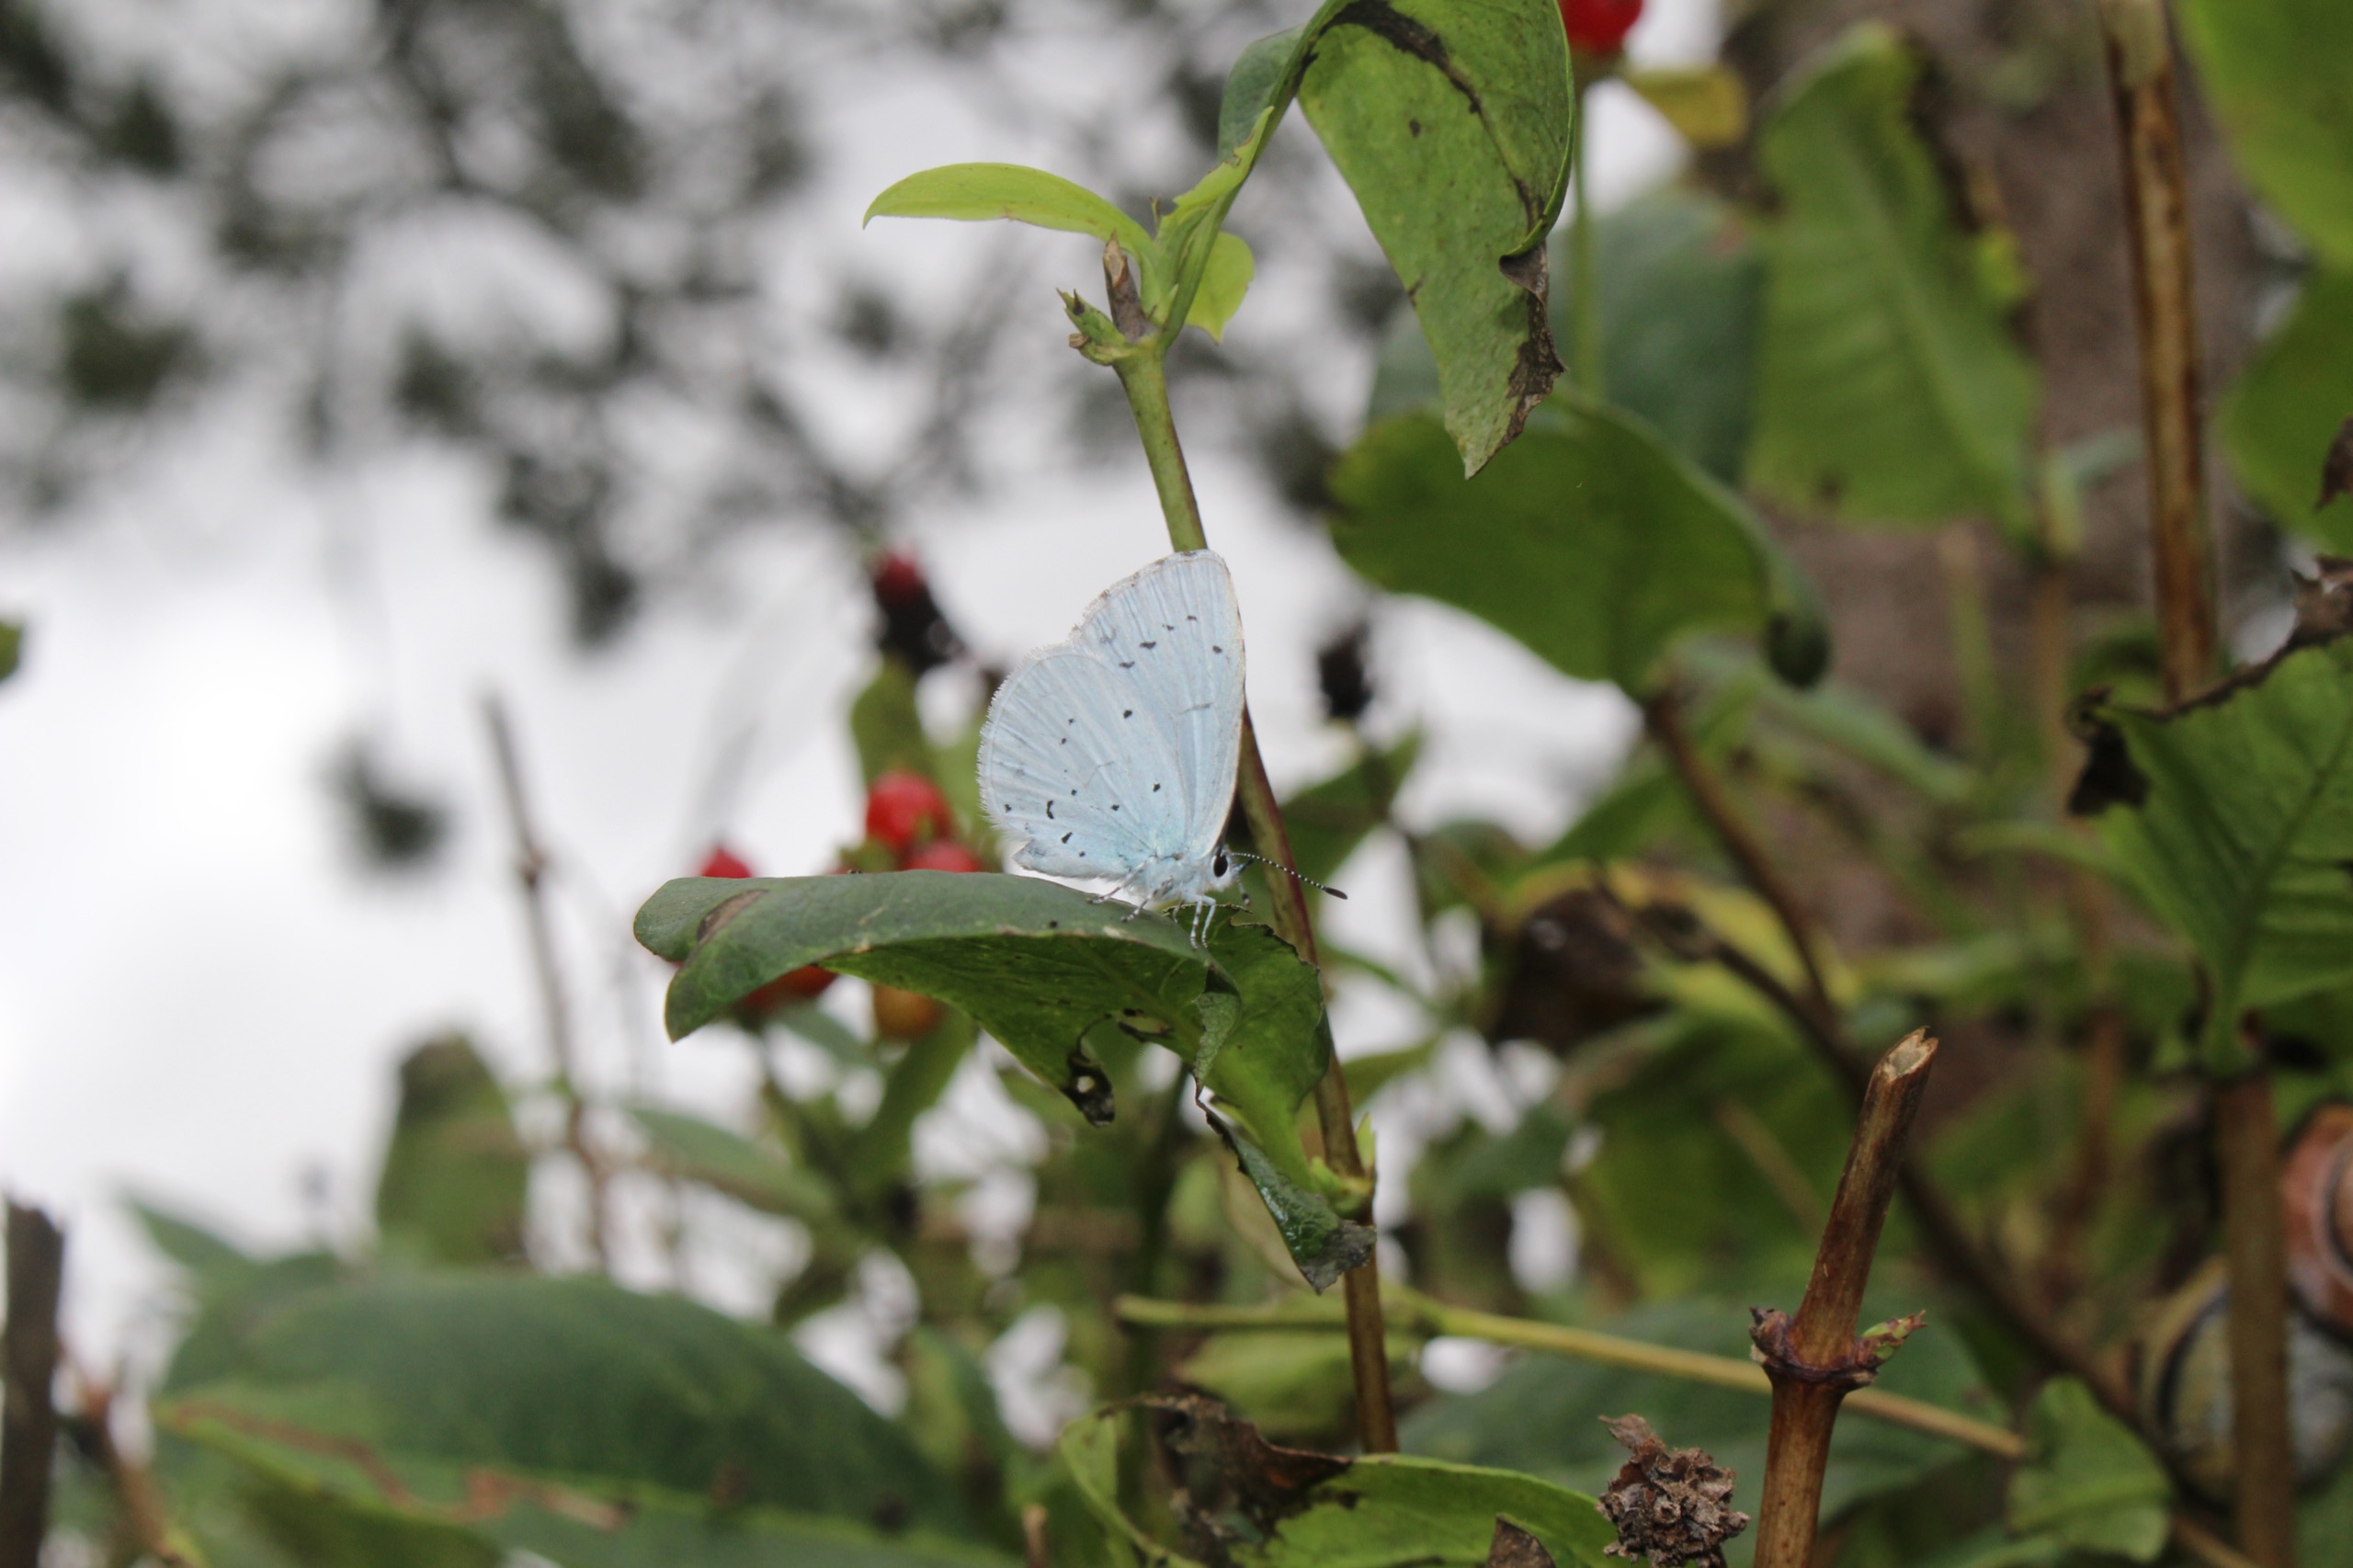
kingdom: Animalia
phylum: Arthropoda
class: Insecta
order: Lepidoptera
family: Lycaenidae
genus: Celastrina
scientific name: Celastrina argiolus
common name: Skovblåfugl
